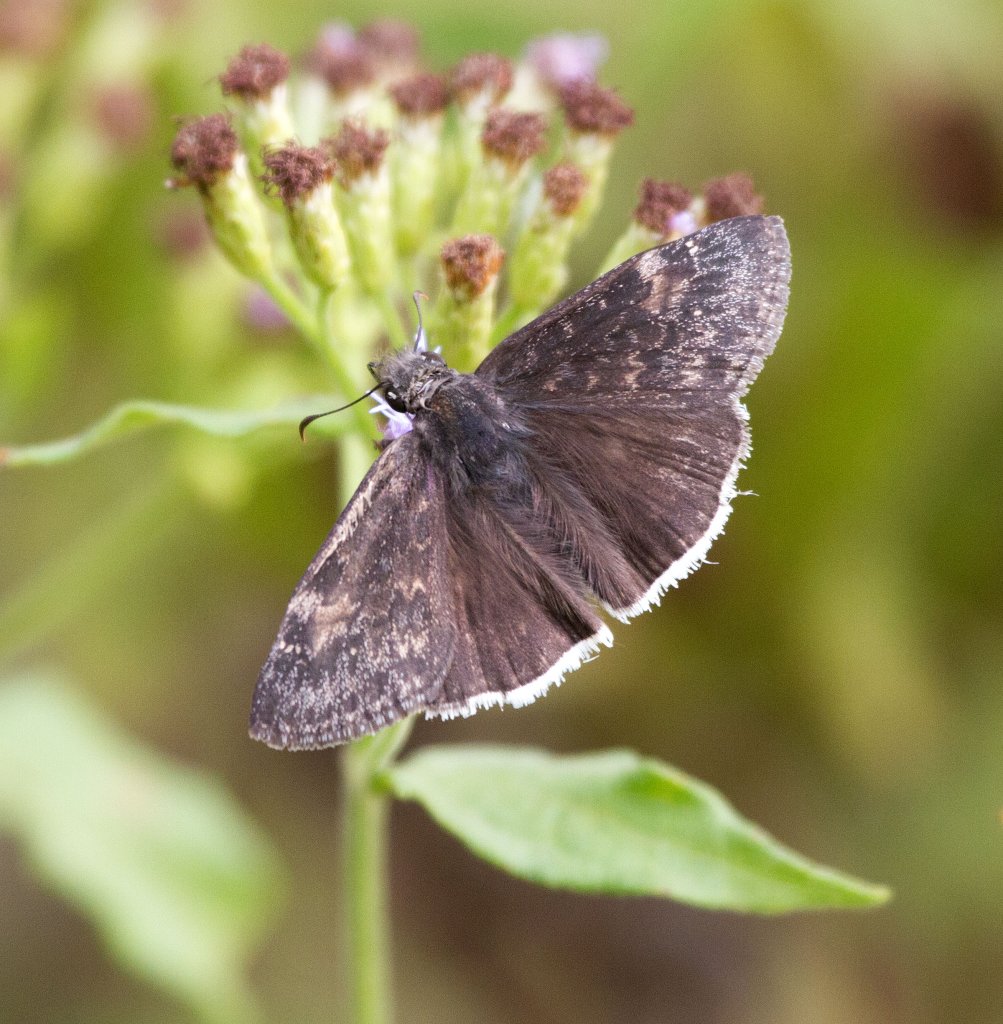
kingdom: Animalia
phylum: Arthropoda
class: Insecta
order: Lepidoptera
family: Hesperiidae
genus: Erynnis
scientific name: Erynnis funeralis
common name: Funereal Duskywing
